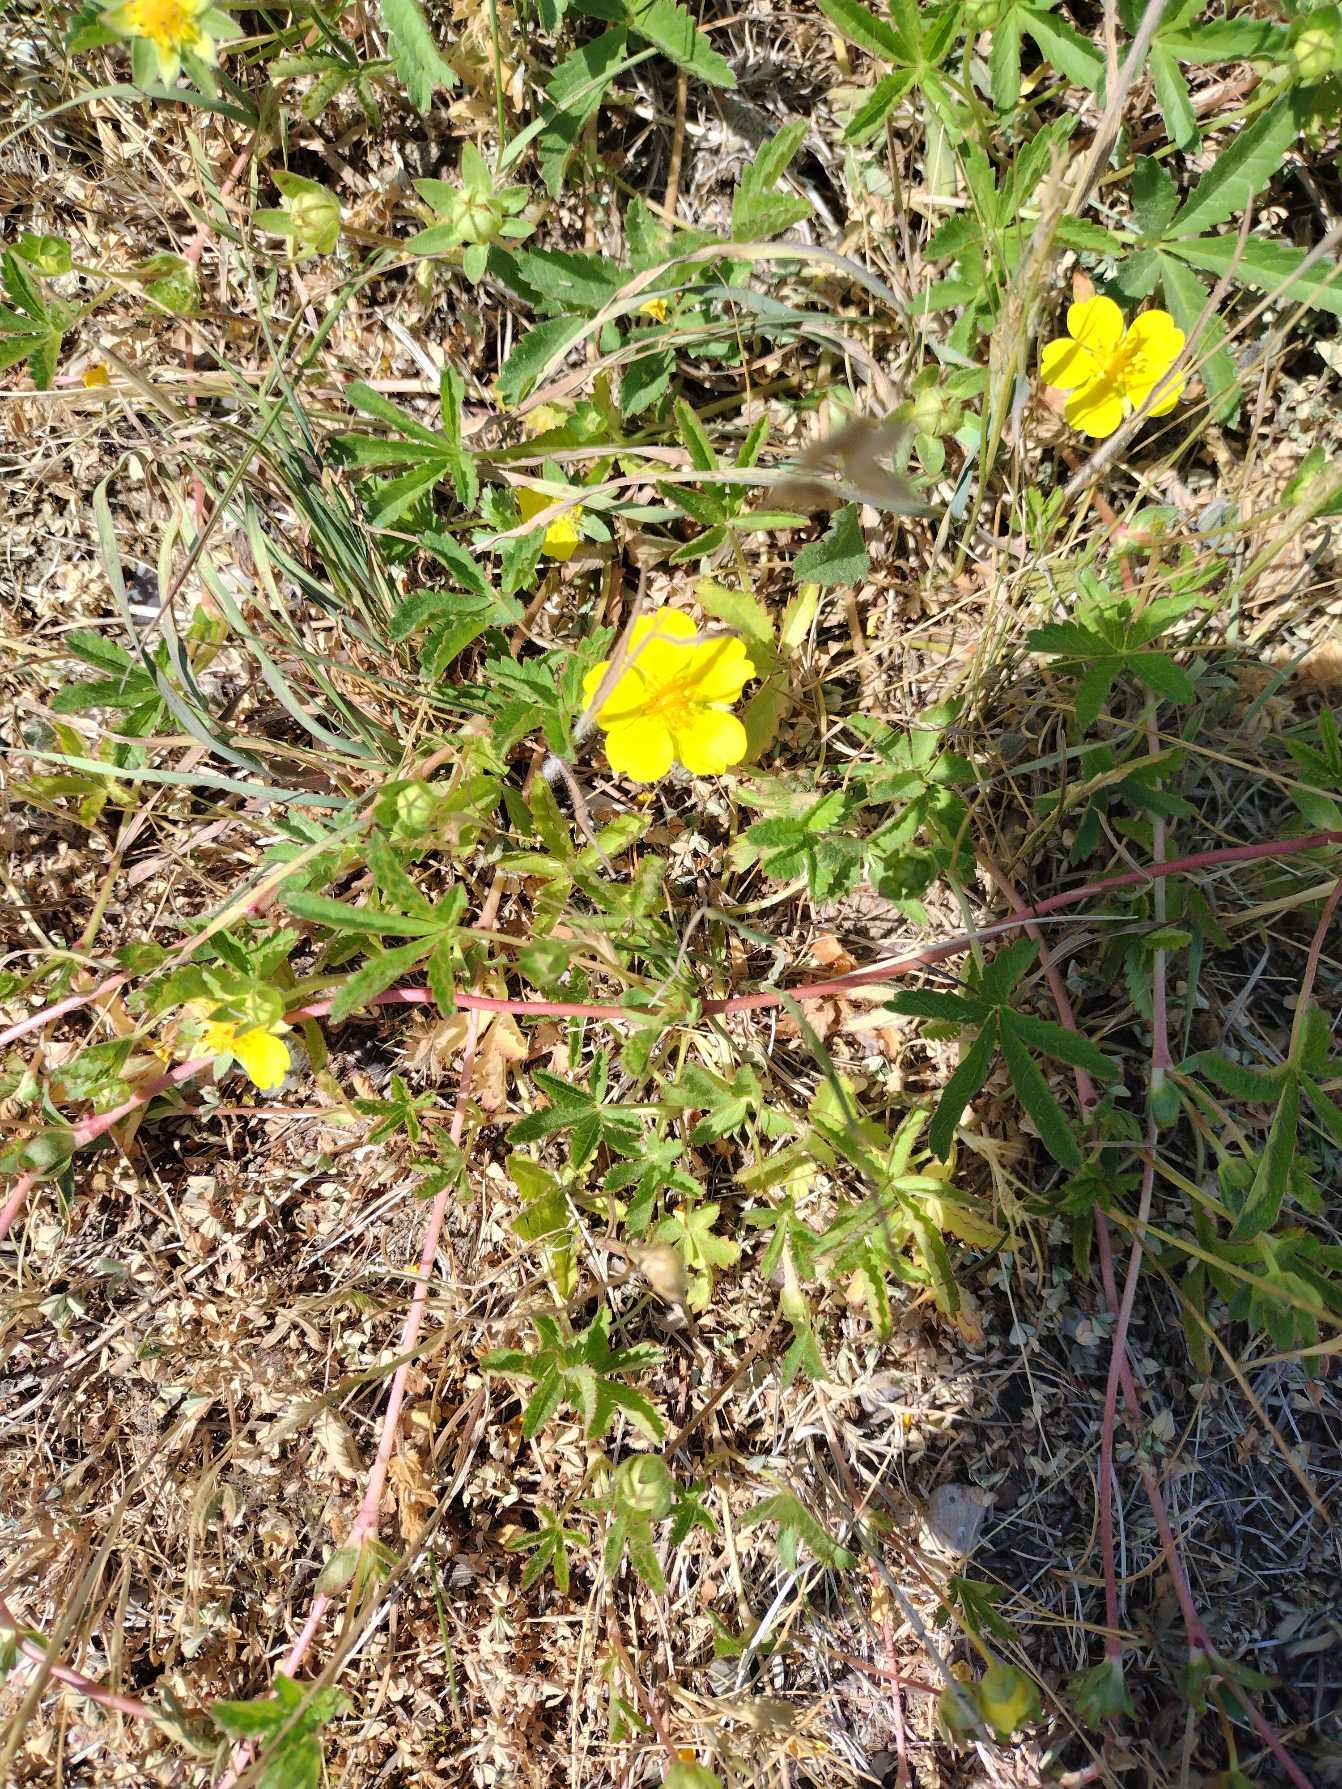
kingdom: Plantae
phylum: Tracheophyta
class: Magnoliopsida
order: Rosales
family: Rosaceae
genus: Potentilla
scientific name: Potentilla reptans
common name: Krybende potentil
